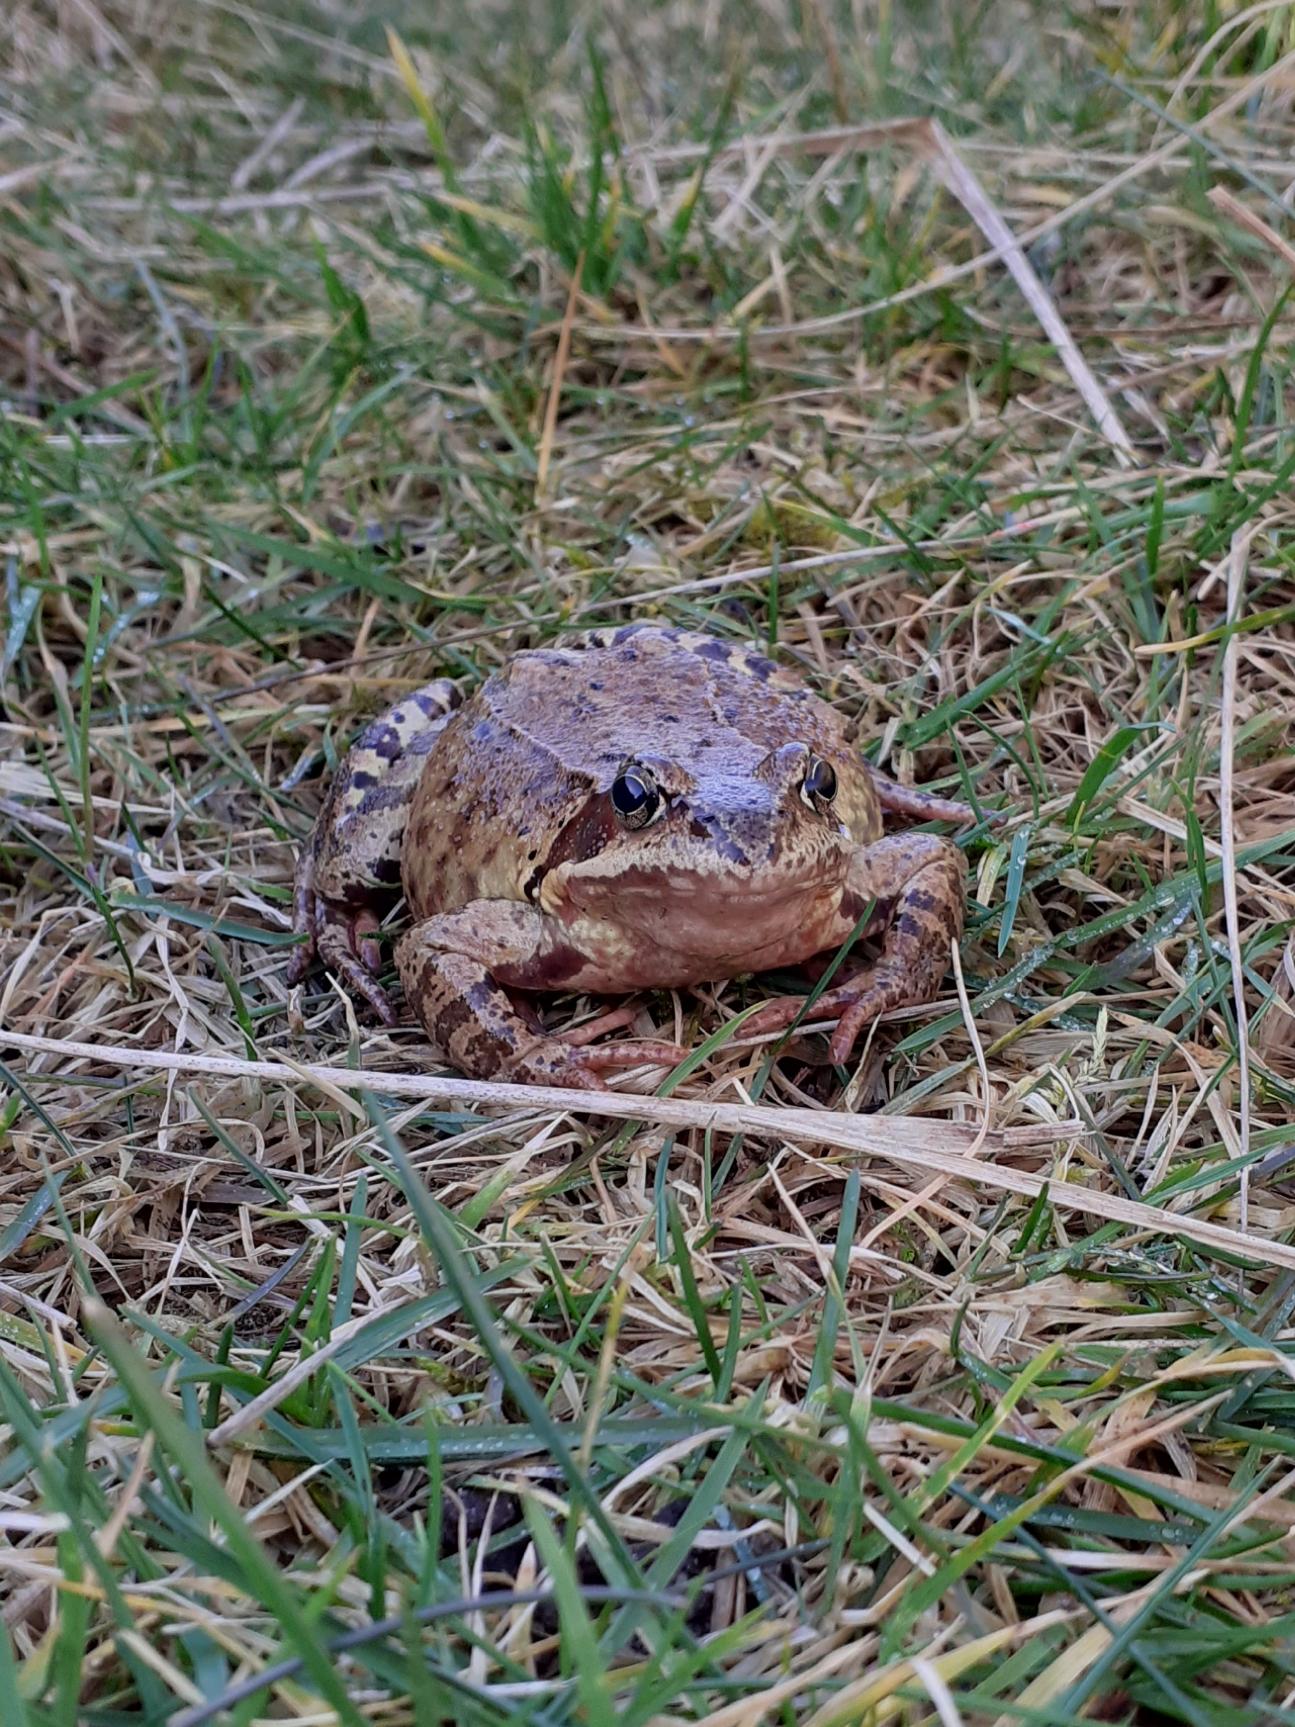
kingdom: Animalia
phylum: Chordata
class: Amphibia
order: Anura
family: Ranidae
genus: Rana
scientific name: Rana temporaria
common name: Butsnudet frø
